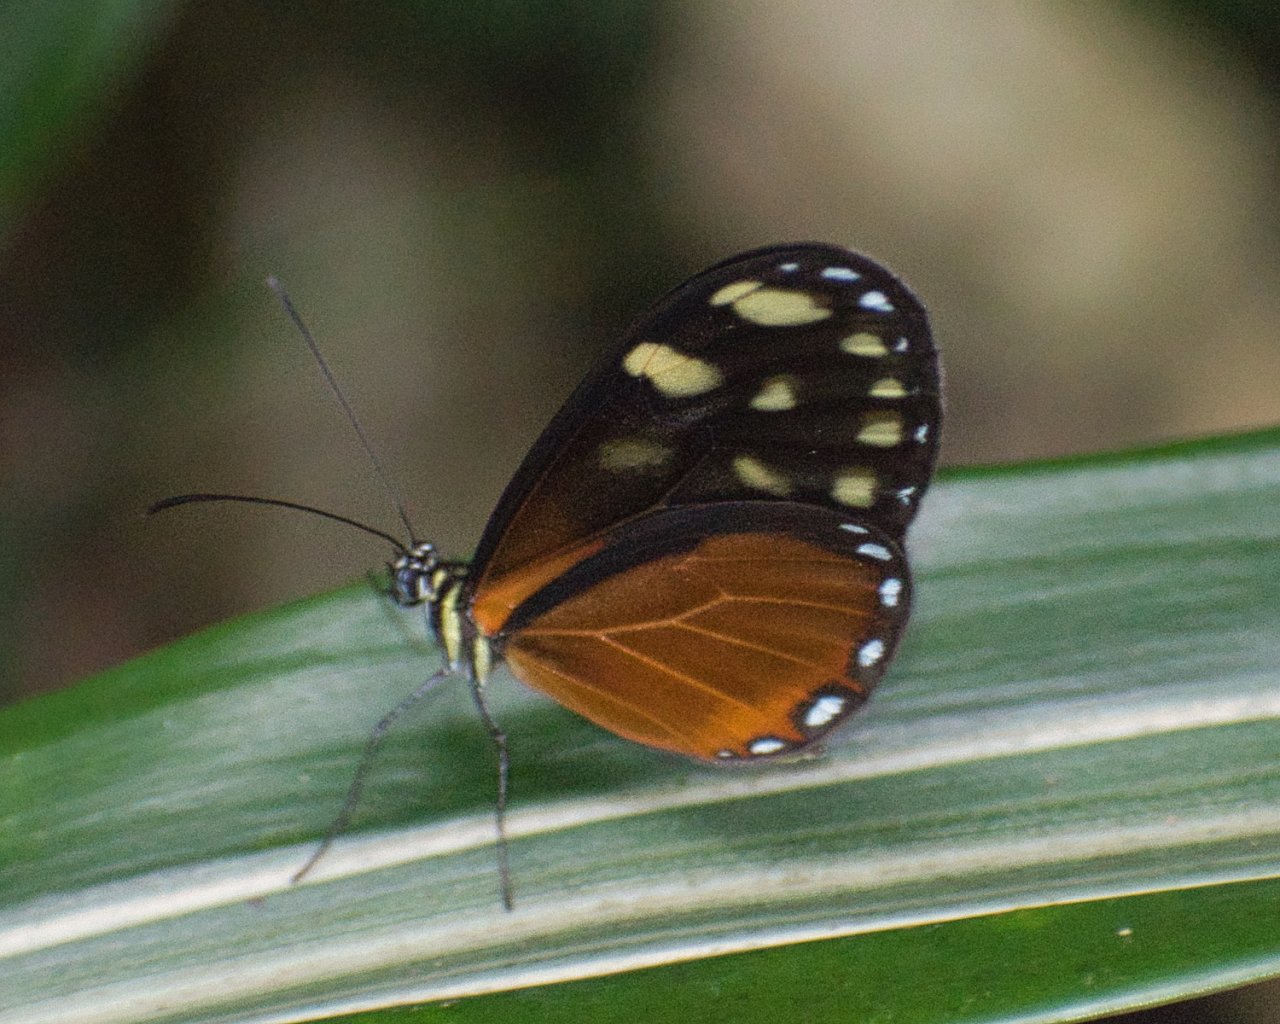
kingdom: Animalia
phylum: Arthropoda
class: Insecta
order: Lepidoptera
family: Nymphalidae
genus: Pteronymia
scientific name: Pteronymia picta
